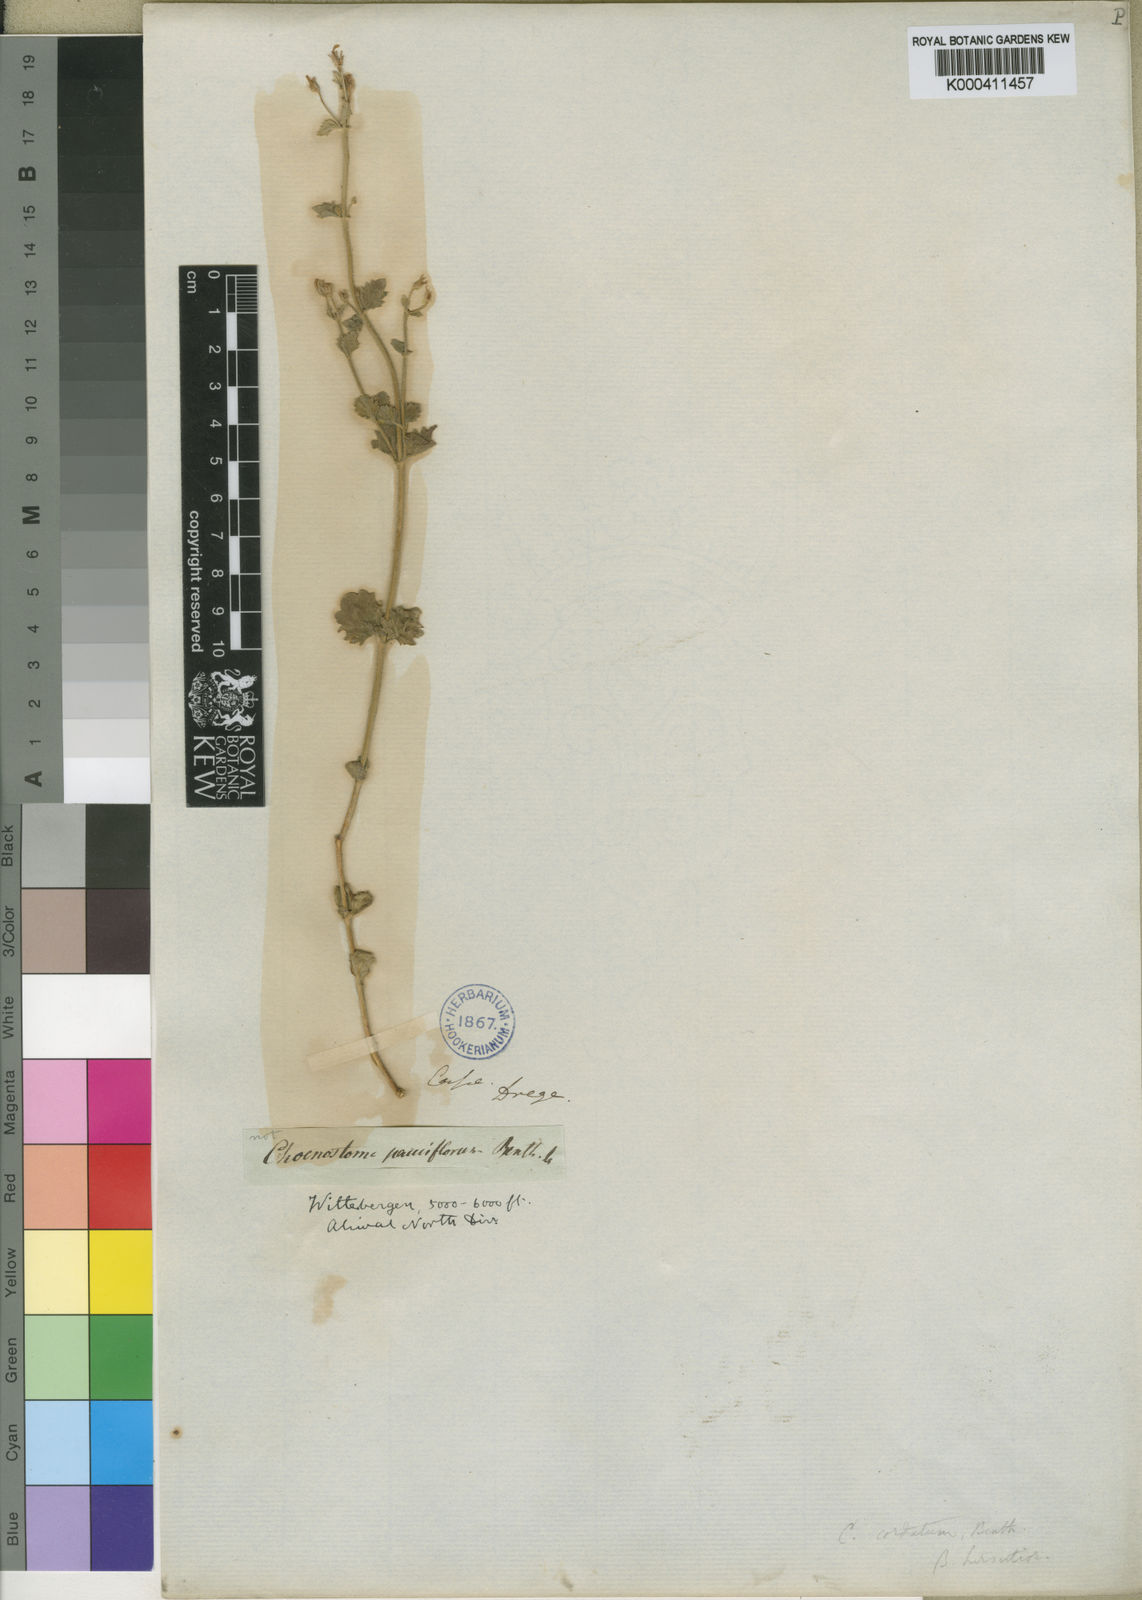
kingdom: Plantae
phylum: Tracheophyta
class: Magnoliopsida
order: Lamiales
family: Scrophulariaceae
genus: Chaenostoma
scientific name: Chaenostoma cordatum
